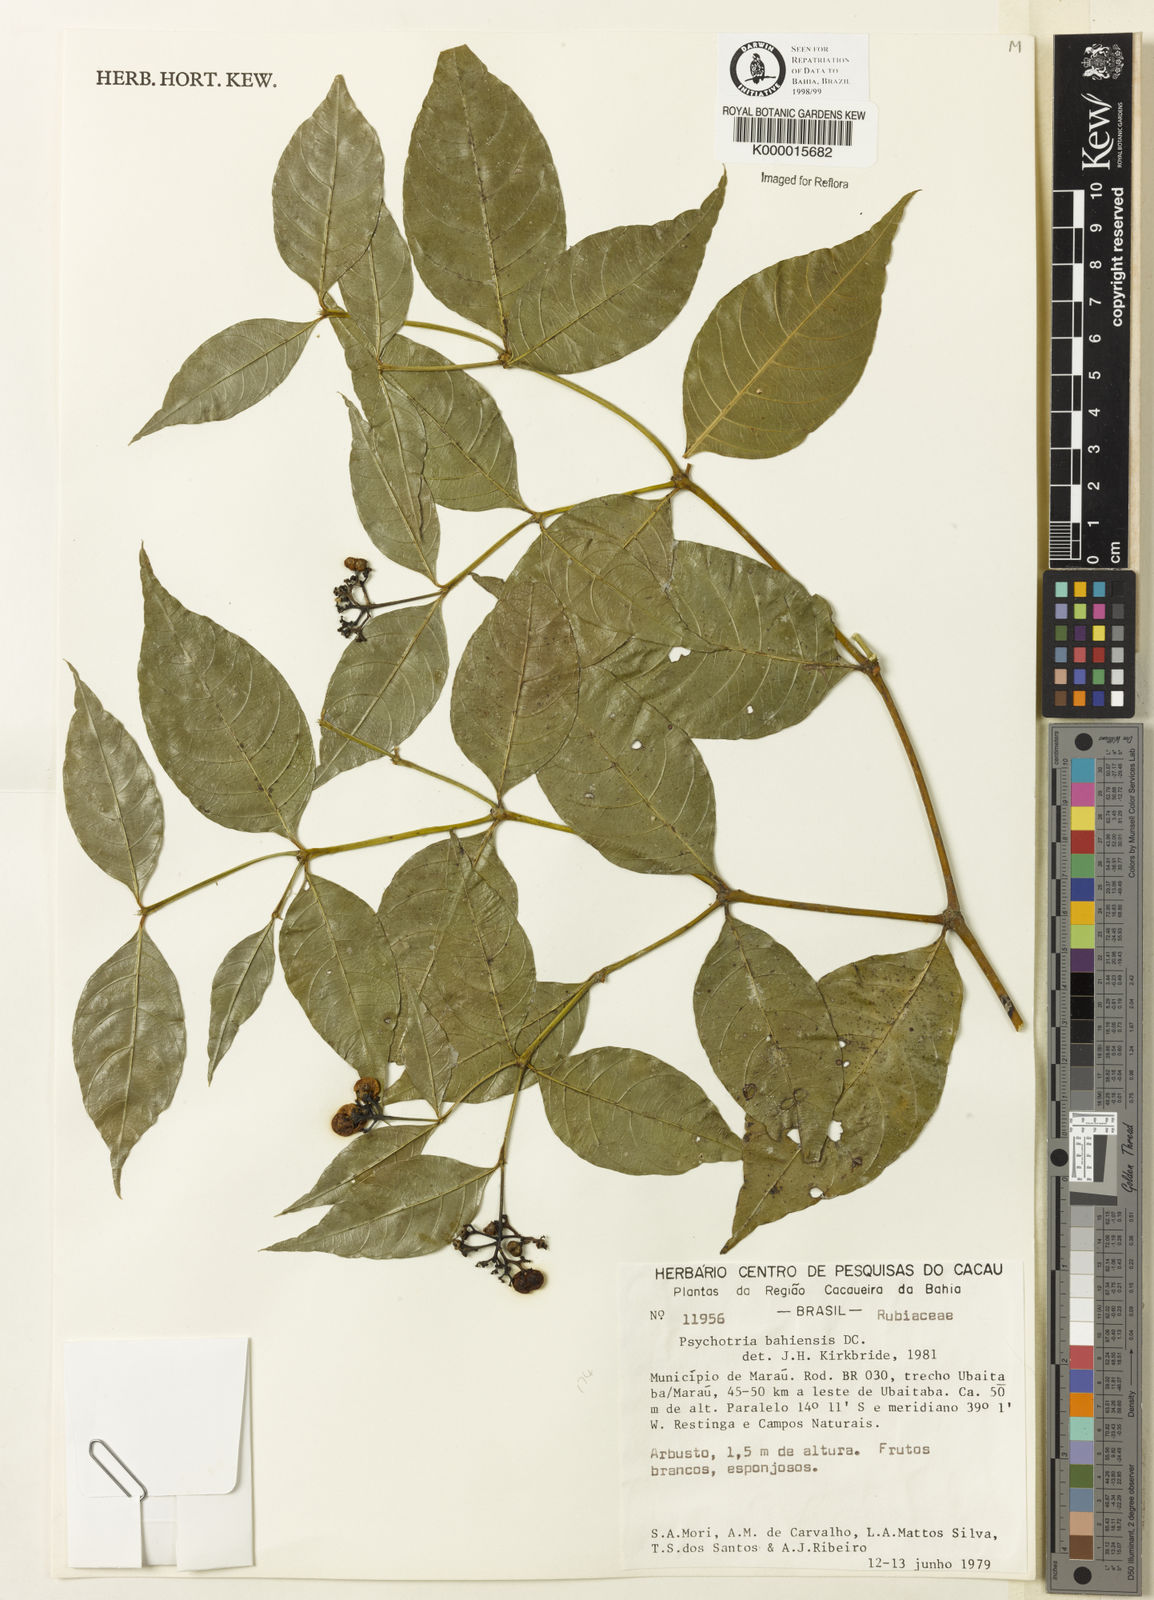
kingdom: Plantae
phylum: Tracheophyta
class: Magnoliopsida
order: Gentianales
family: Rubiaceae
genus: Psychotria
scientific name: Psychotria bahiensis
